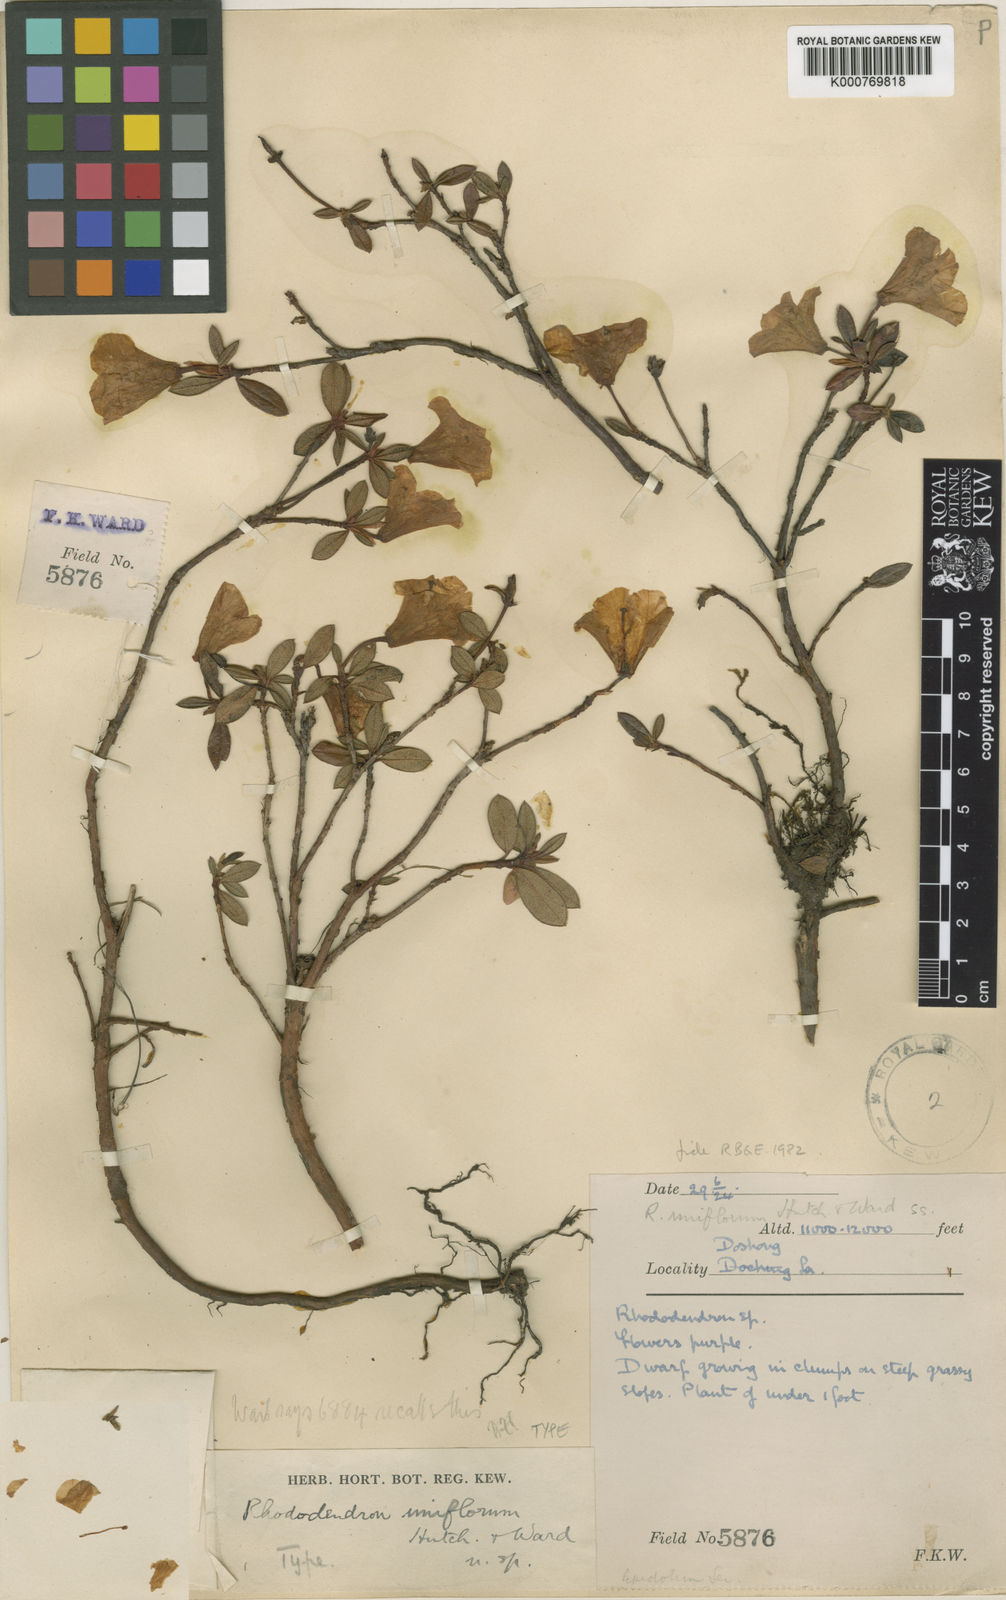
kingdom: Plantae
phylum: Tracheophyta
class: Magnoliopsida
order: Ericales
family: Ericaceae
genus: Rhododendron
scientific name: Rhododendron uniflorum
